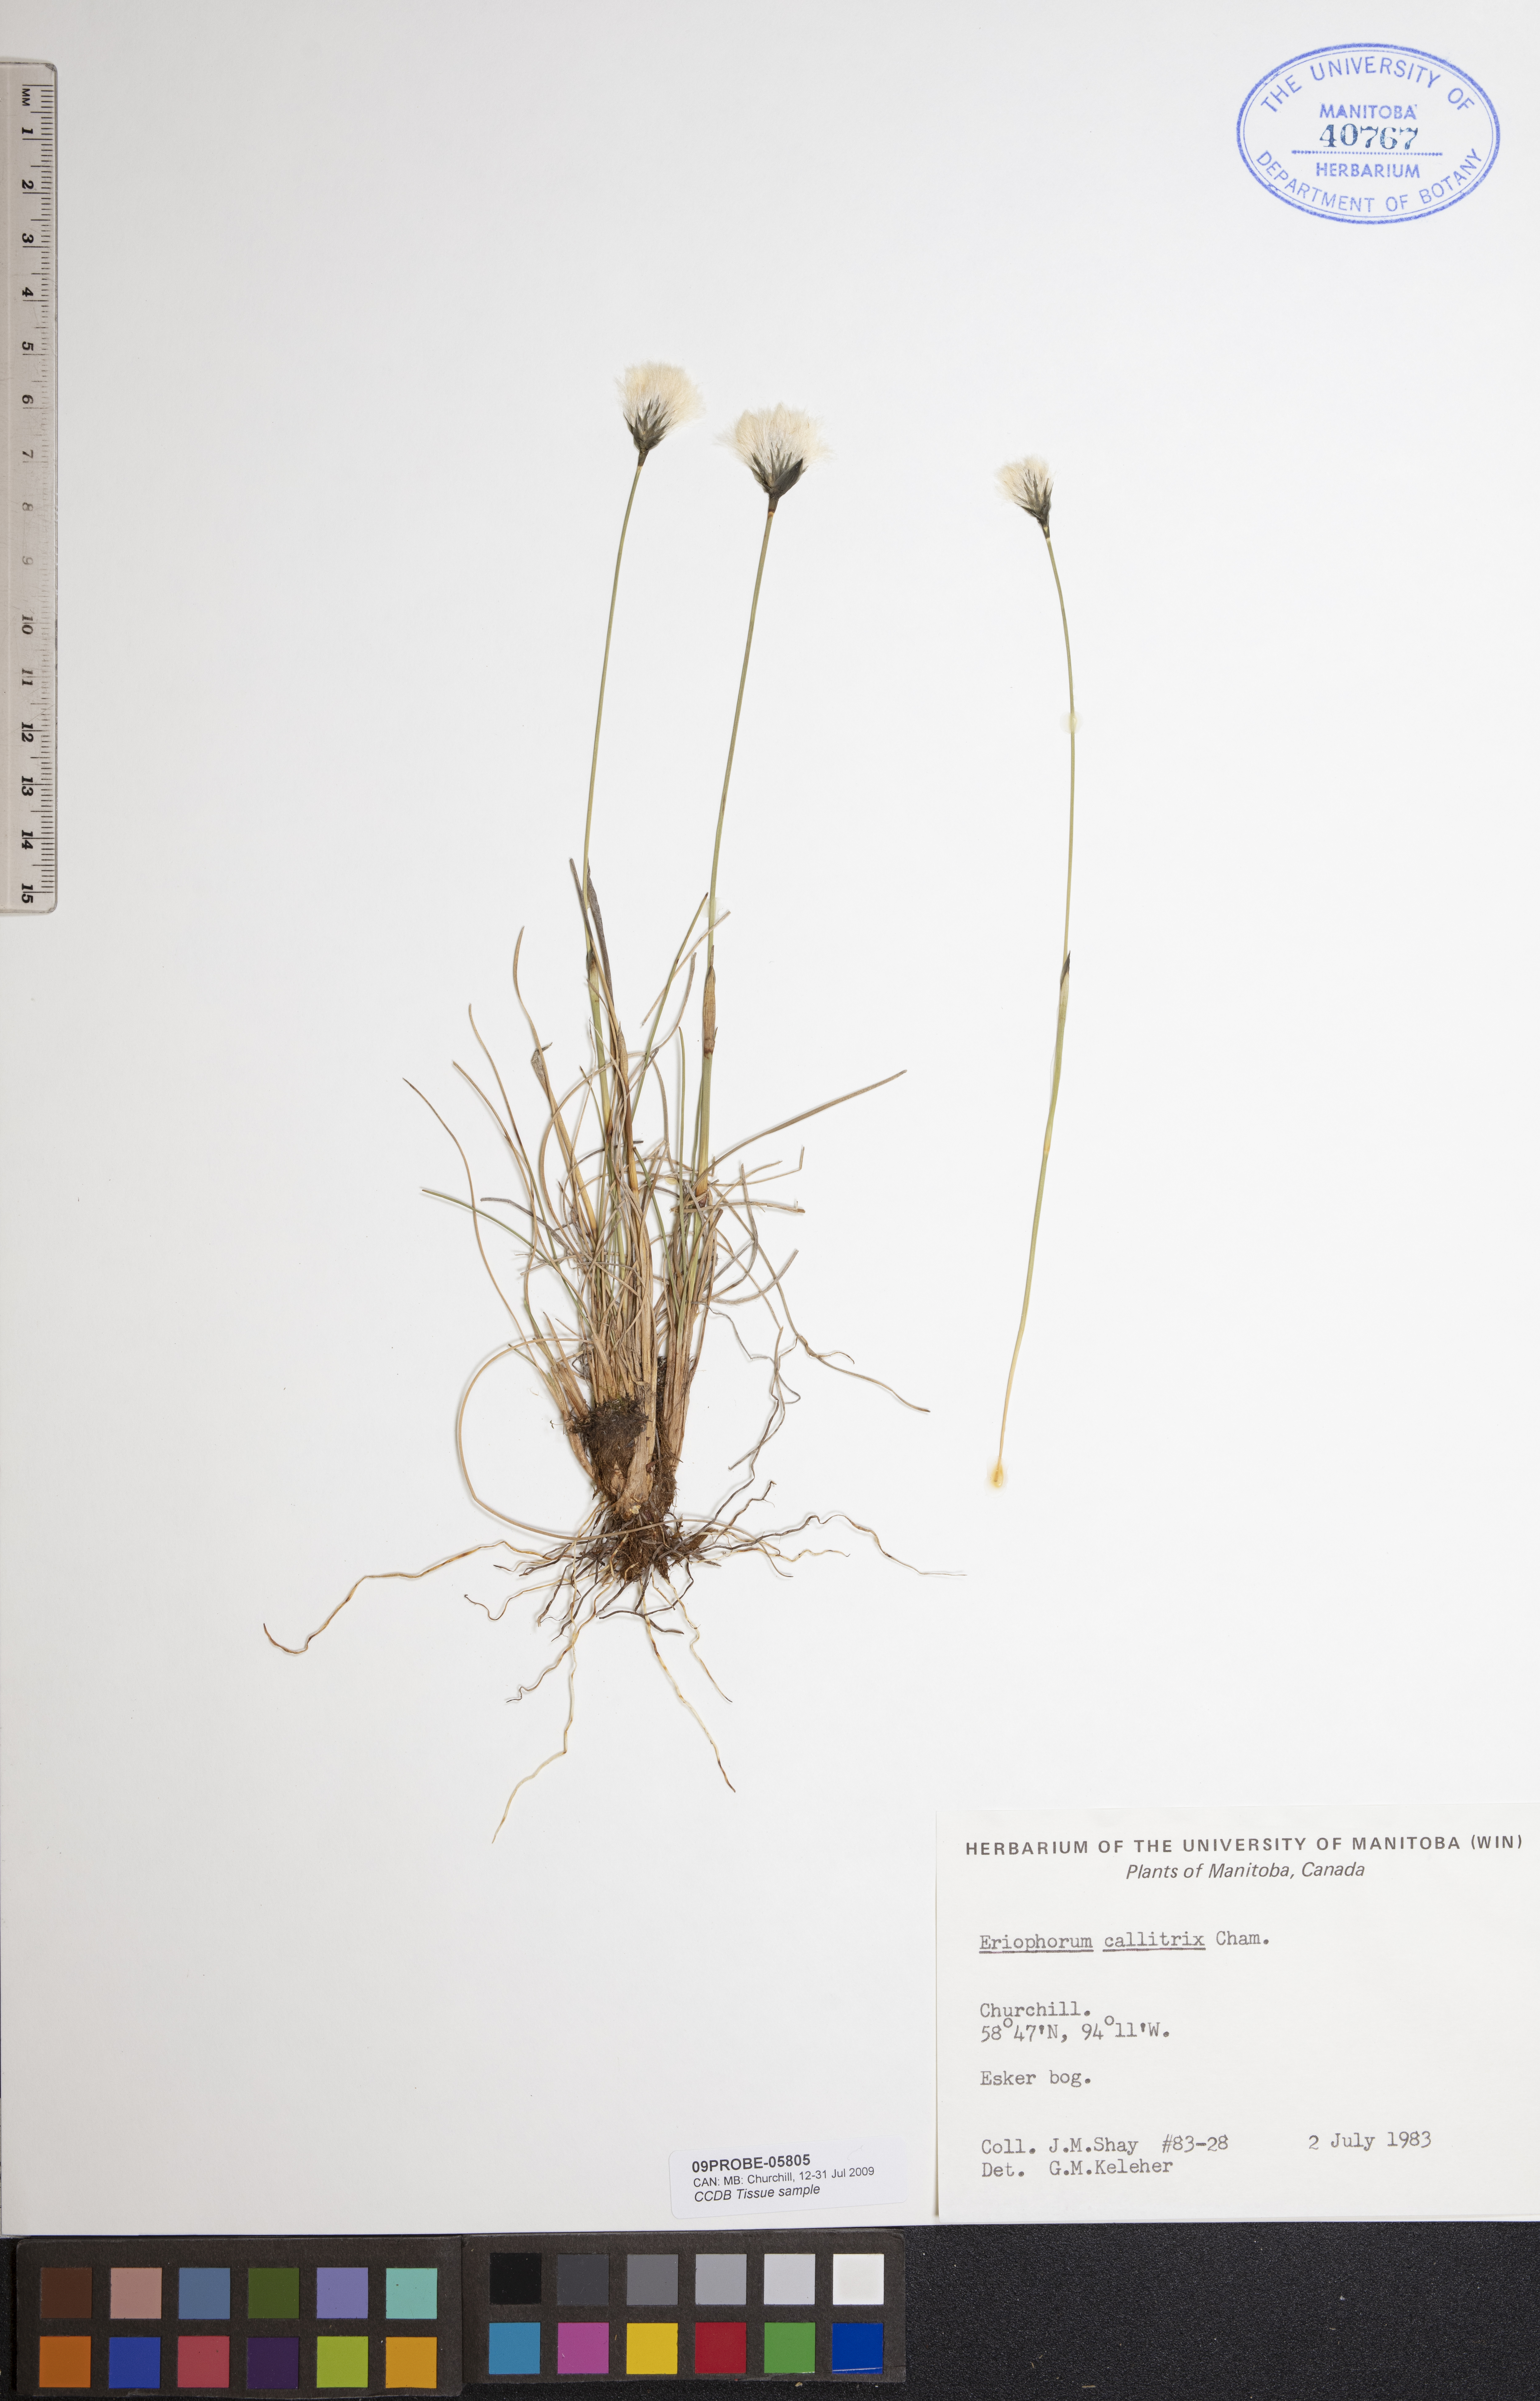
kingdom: Plantae
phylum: Tracheophyta
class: Liliopsida
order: Poales
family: Cyperaceae
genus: Eriophorum
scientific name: Eriophorum callitrix
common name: Arctic cottongrass
